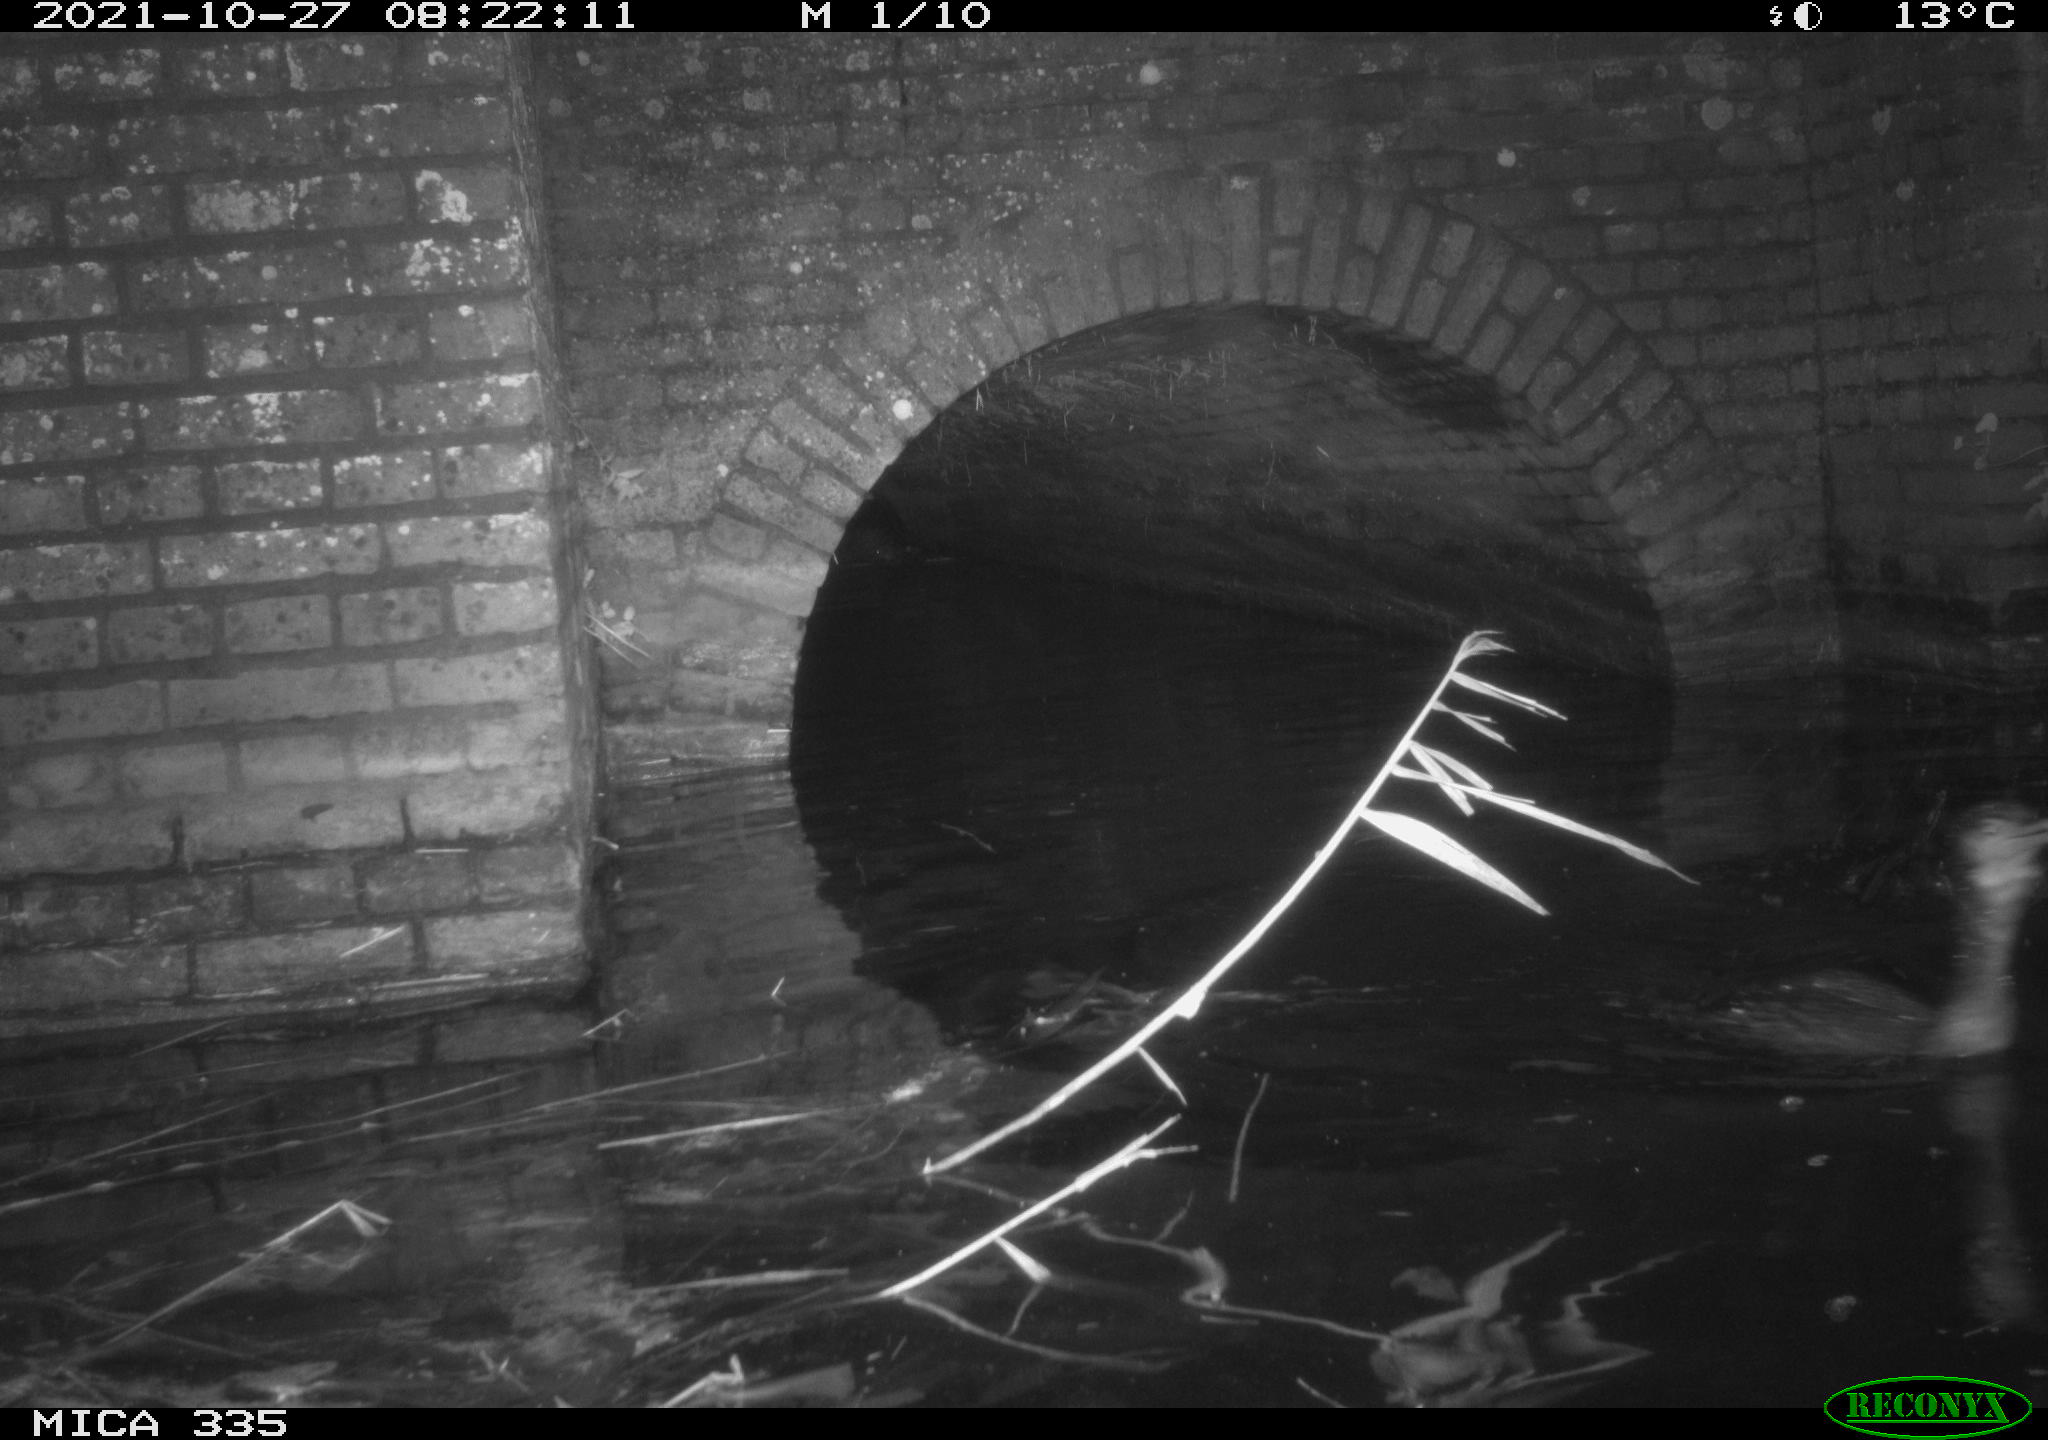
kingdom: Animalia
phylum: Chordata
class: Aves
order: Suliformes
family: Phalacrocoracidae
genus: Phalacrocorax
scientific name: Phalacrocorax carbo
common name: Great cormorant
